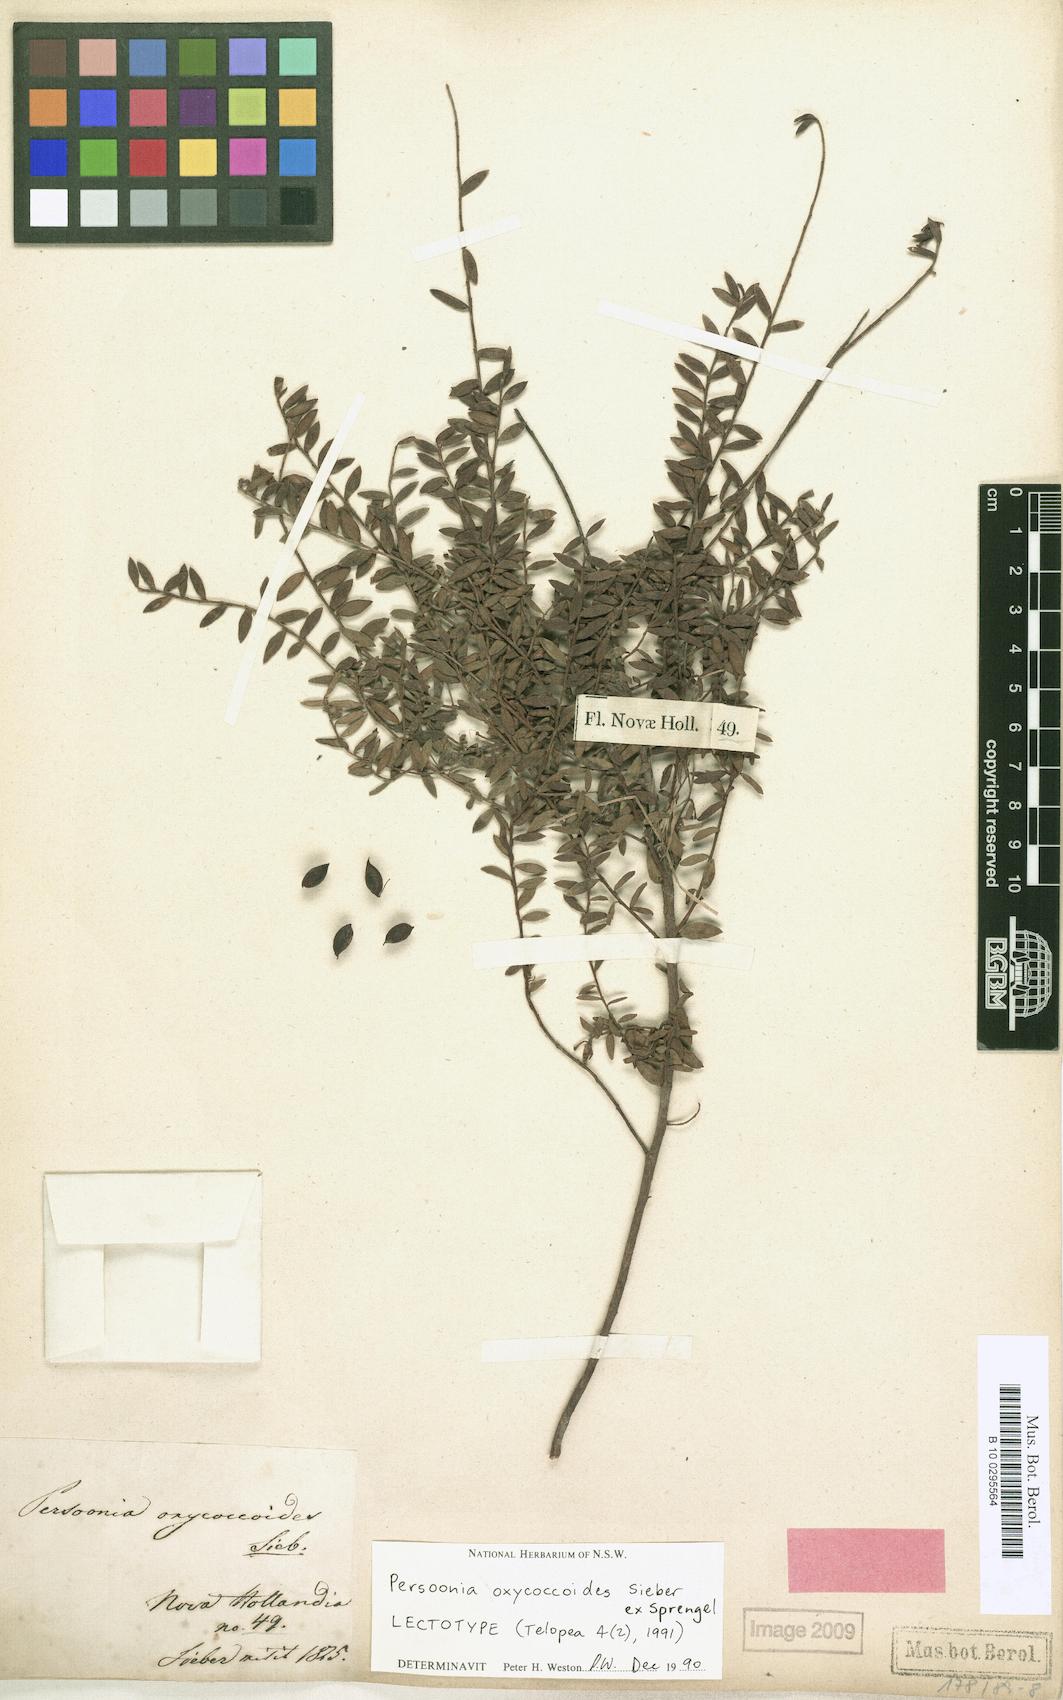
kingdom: Plantae
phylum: Tracheophyta
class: Magnoliopsida
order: Proteales
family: Proteaceae
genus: Persoonia
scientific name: Persoonia oxycoccoides
